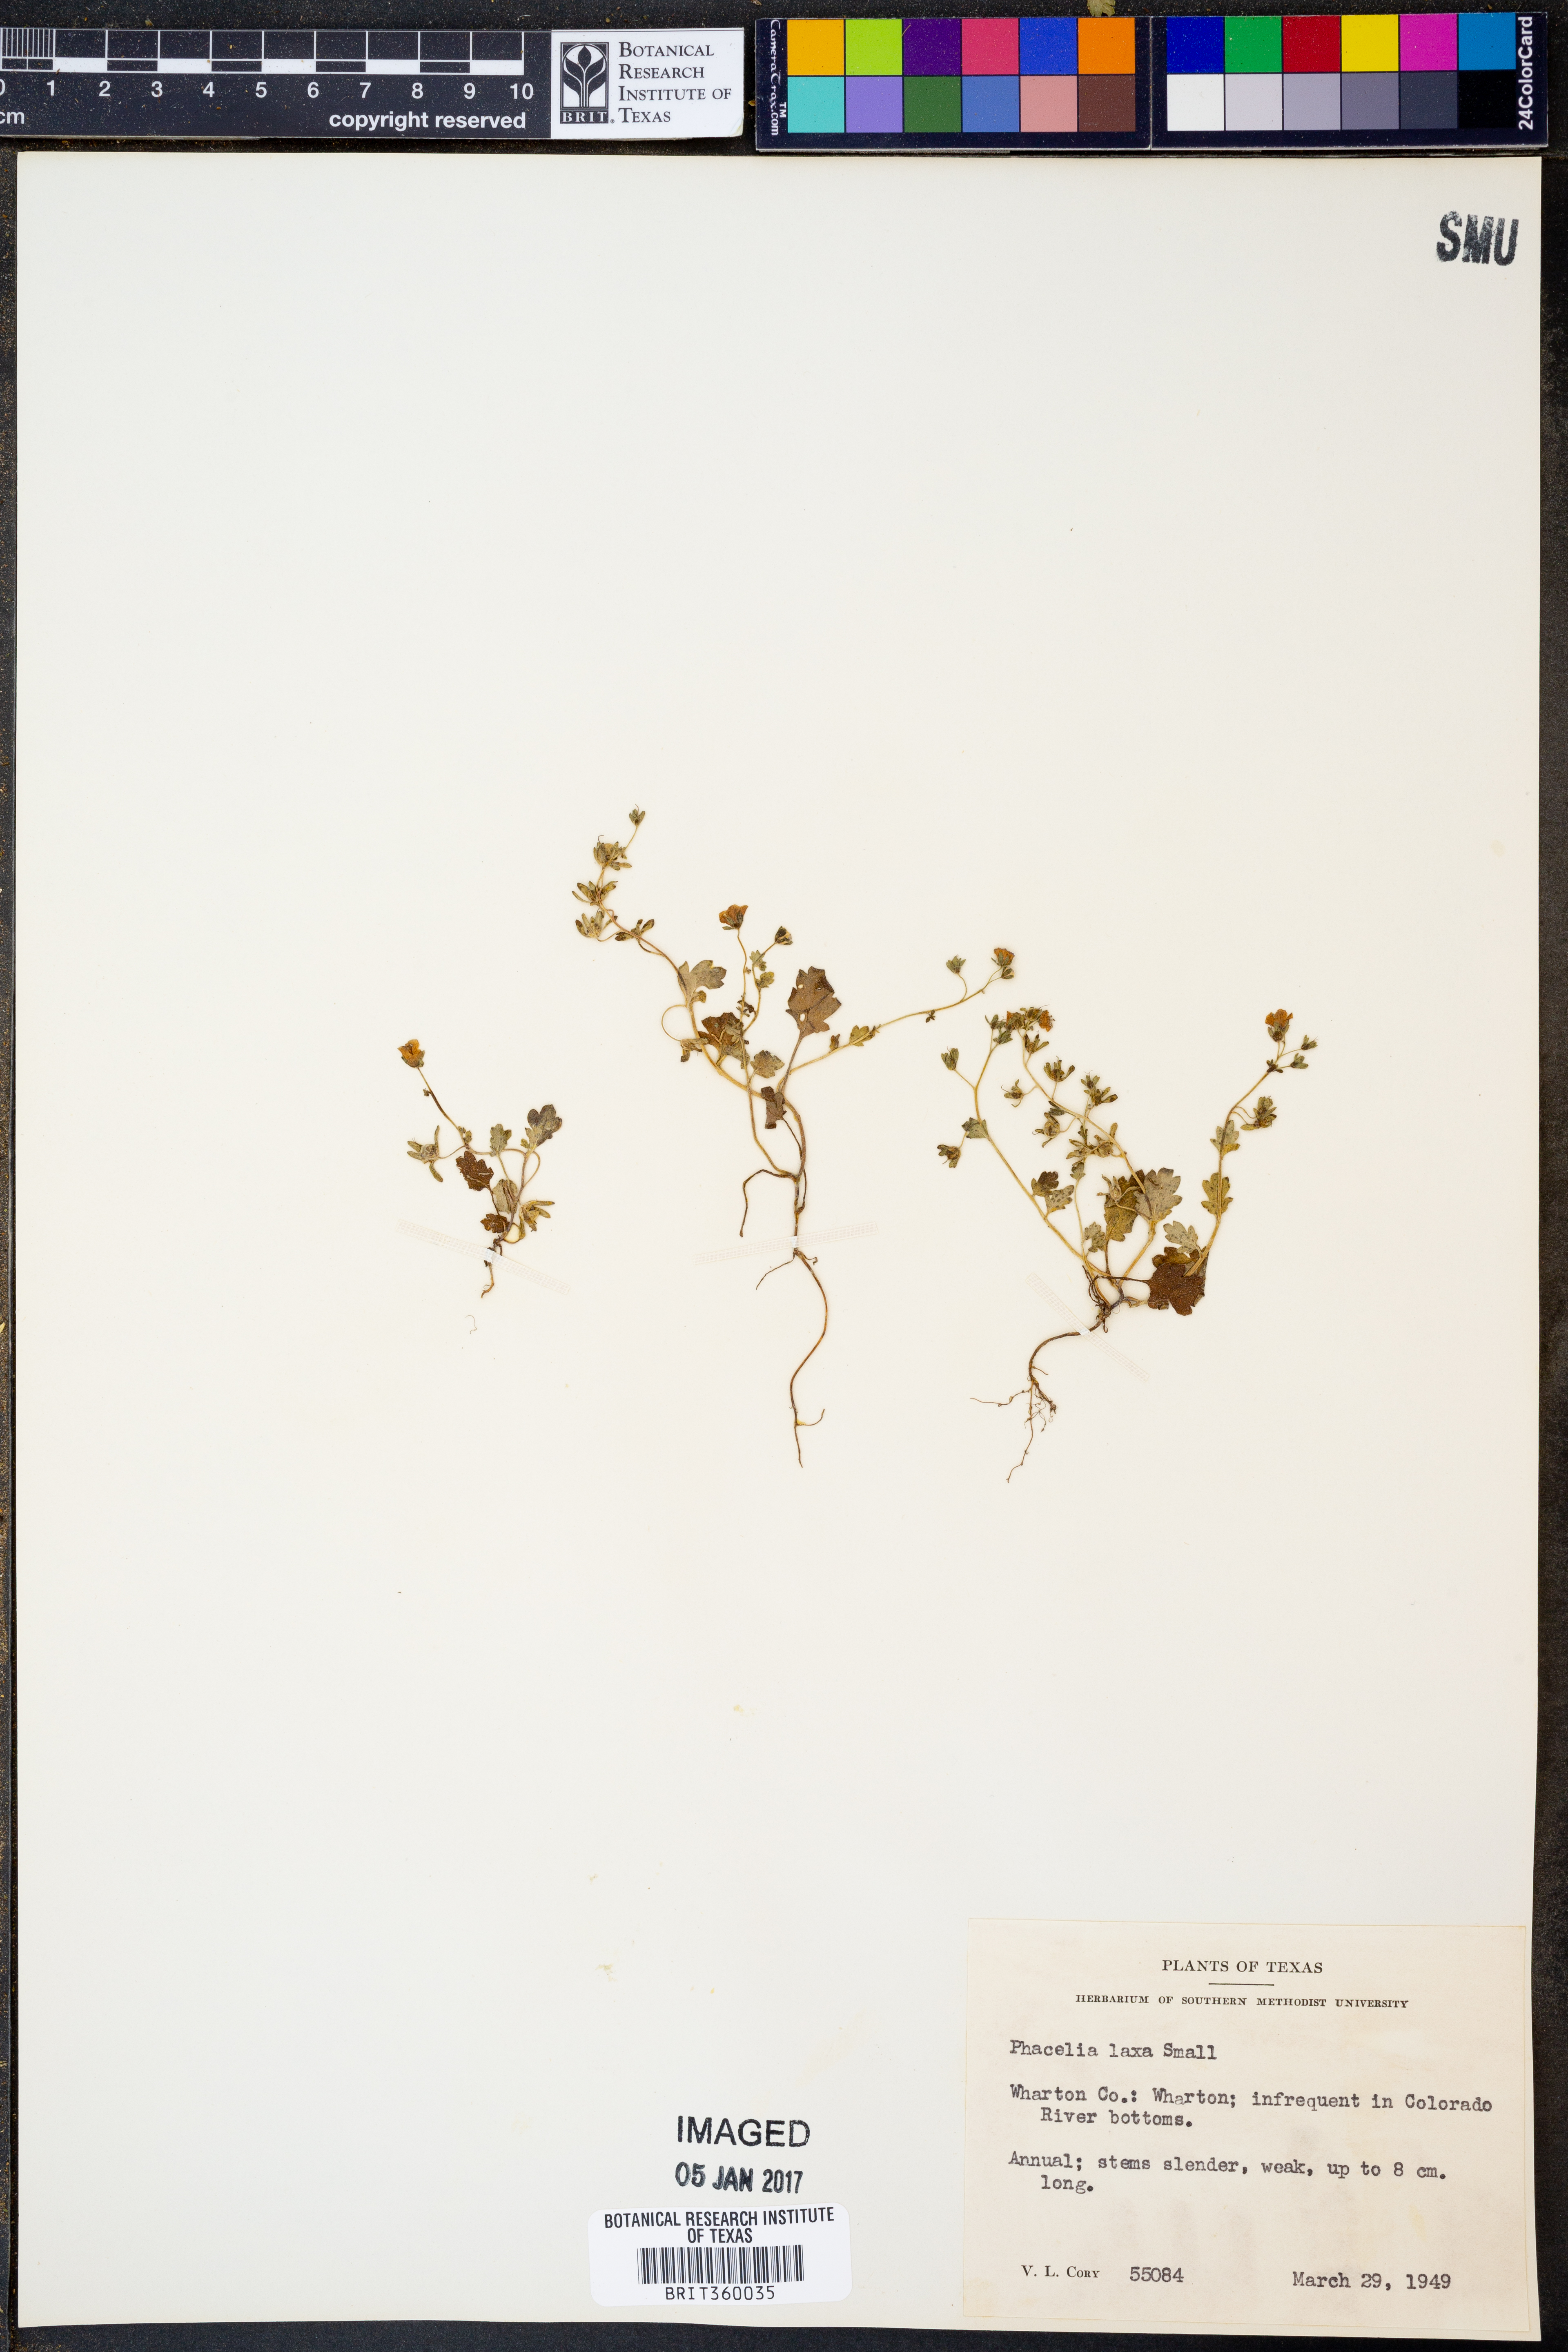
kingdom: Plantae
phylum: Tracheophyta
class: Magnoliopsida
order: Boraginales
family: Hydrophyllaceae
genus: Phacelia
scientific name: Phacelia laxa
